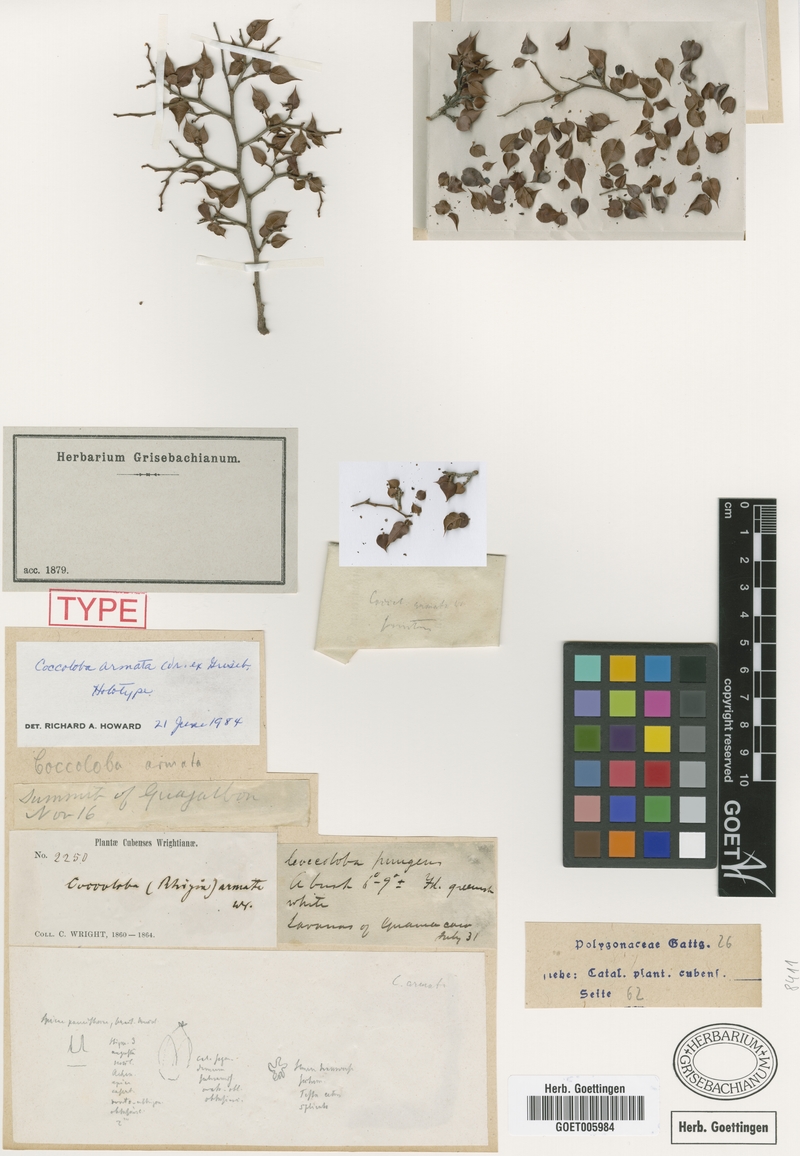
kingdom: Plantae
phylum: Tracheophyta
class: Magnoliopsida
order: Caryophyllales
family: Polygonaceae
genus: Coccoloba
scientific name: Coccoloba armata
